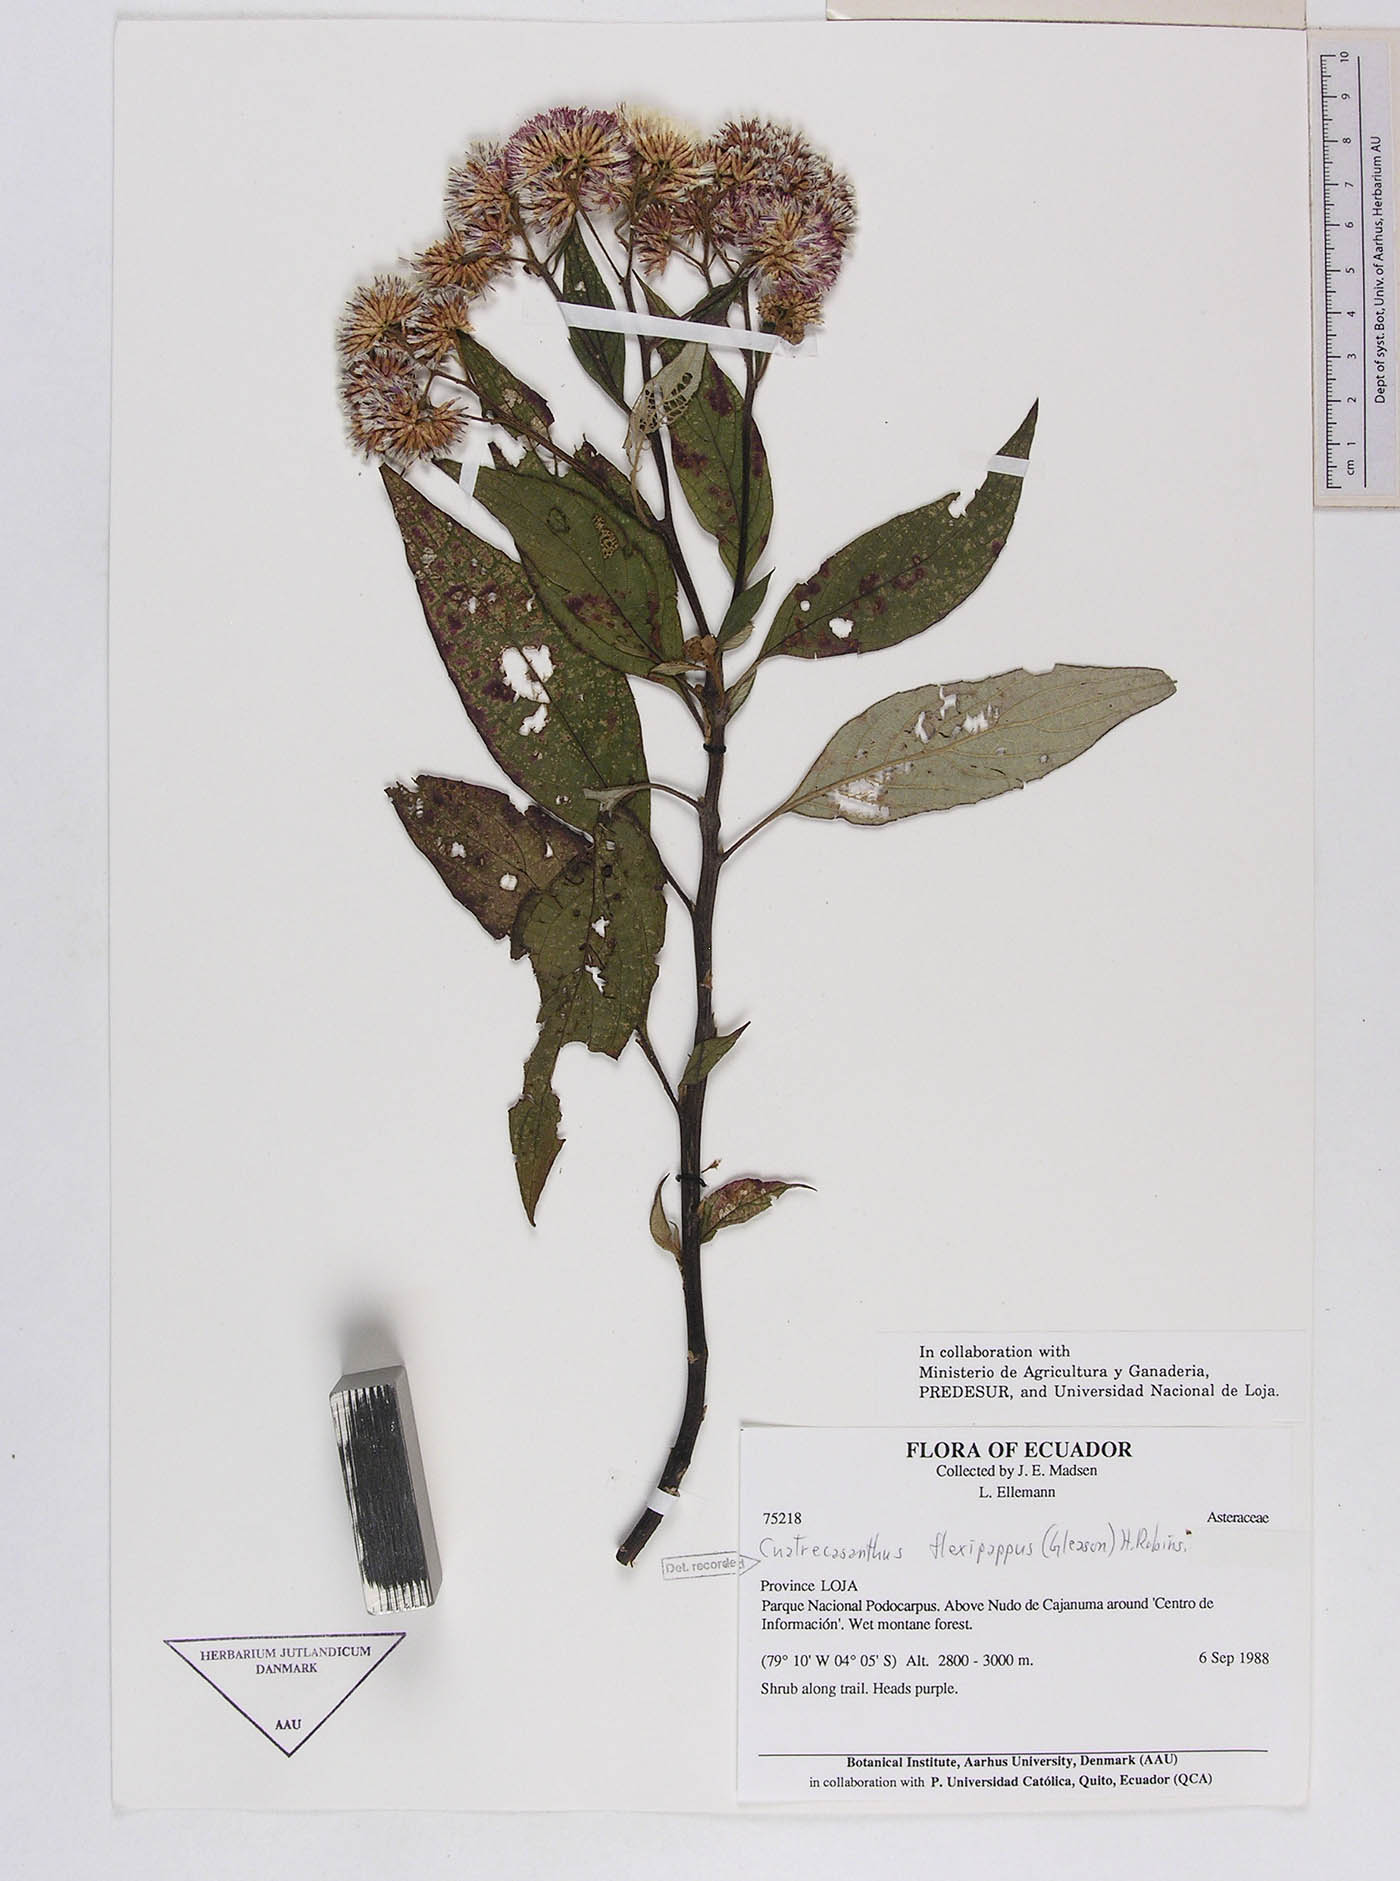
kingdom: Plantae
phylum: Tracheophyta
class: Magnoliopsida
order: Asterales
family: Asteraceae
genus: Cuatrecasanthus
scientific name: Cuatrecasanthus flexipappus
